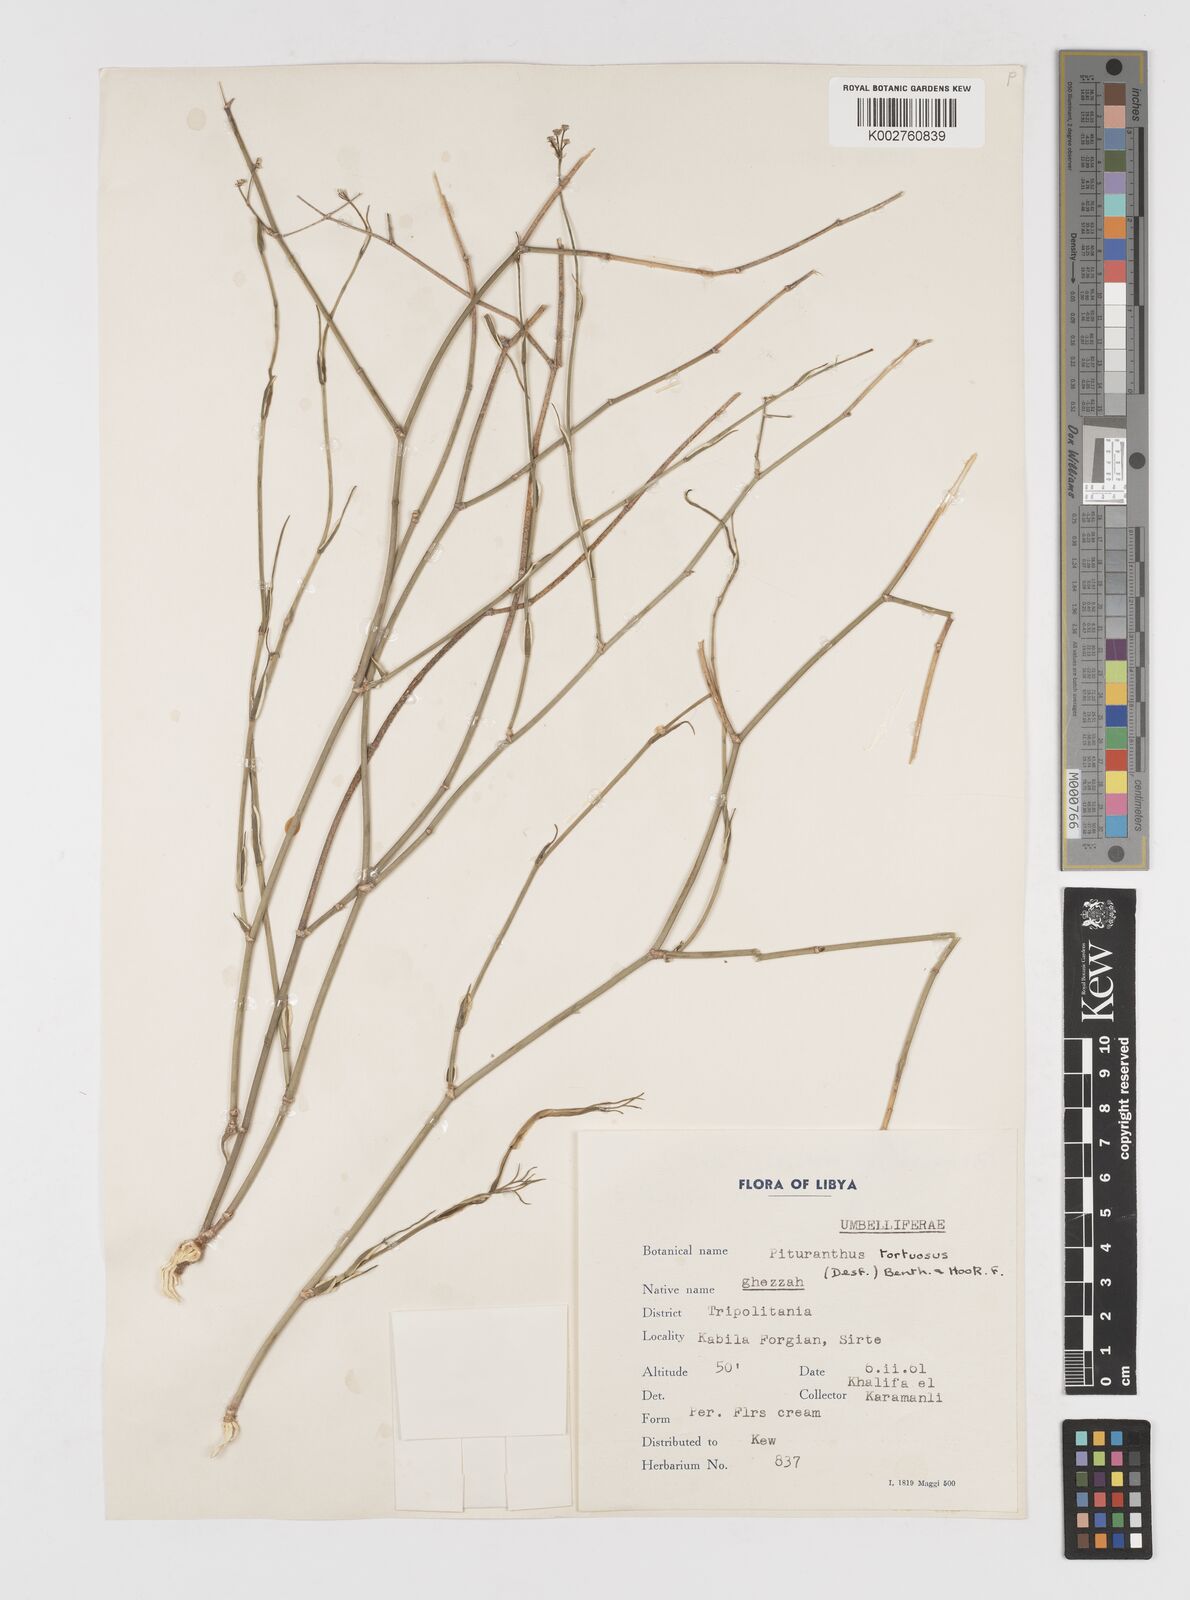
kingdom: Plantae
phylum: Tracheophyta
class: Magnoliopsida
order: Apiales
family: Apiaceae
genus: Deverra
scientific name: Deverra tortuosa
